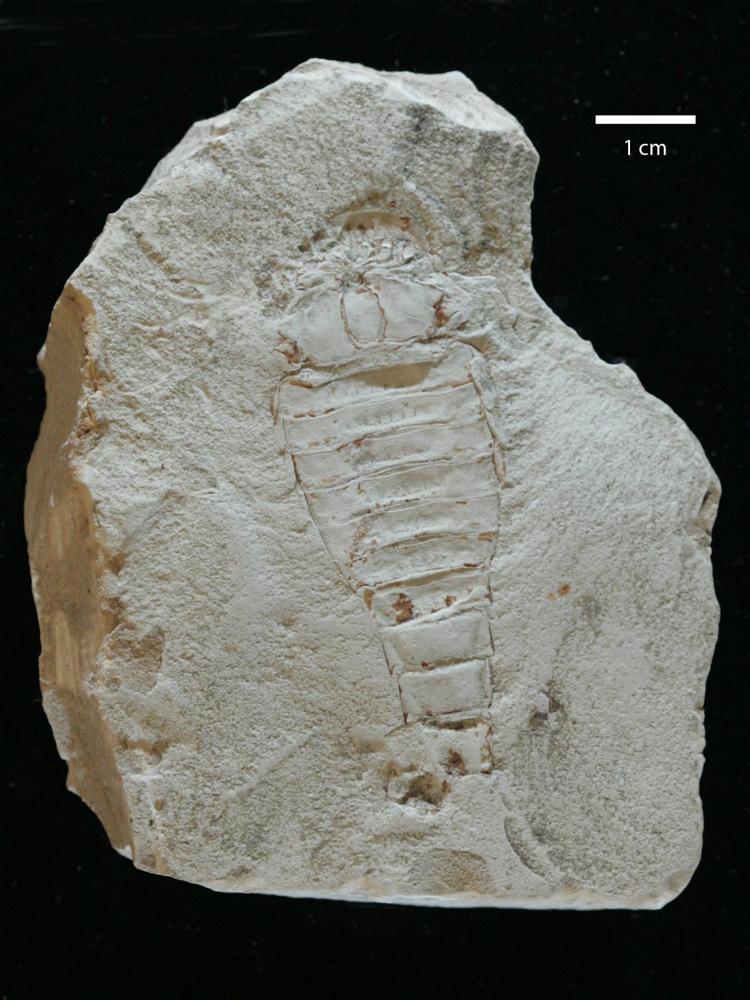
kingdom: Animalia
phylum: Arthropoda
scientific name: Arthropoda
